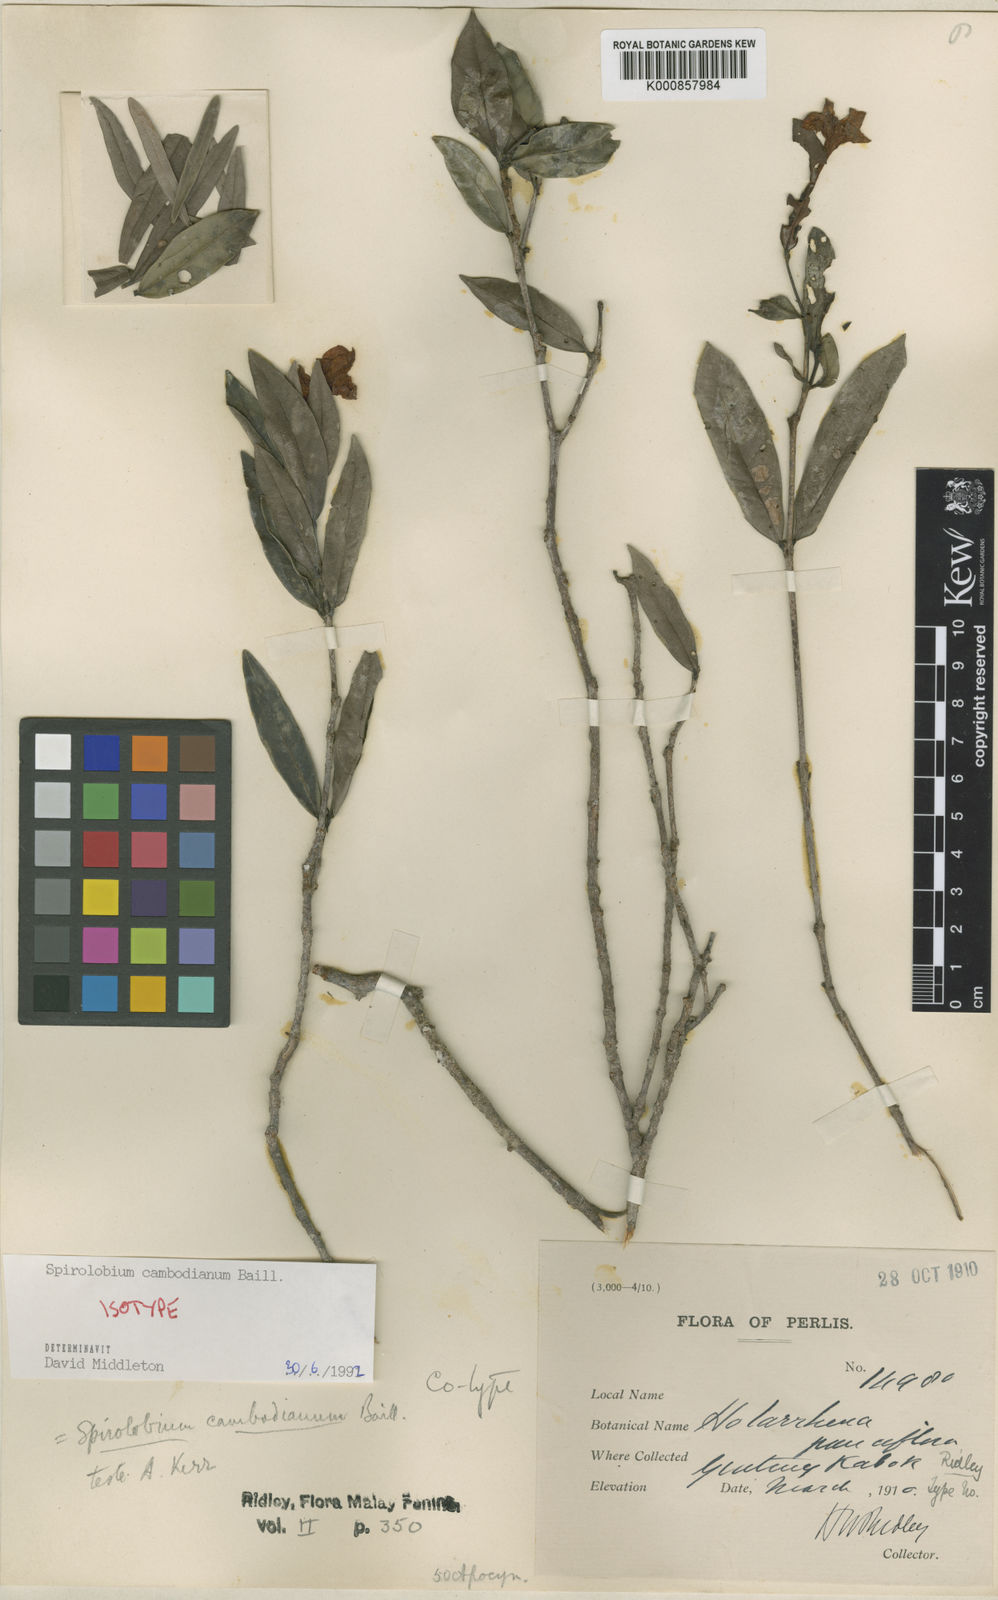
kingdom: Plantae
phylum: Tracheophyta
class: Magnoliopsida
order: Gentianales
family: Apocynaceae
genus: Spirolobium
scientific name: Spirolobium cambodianum
